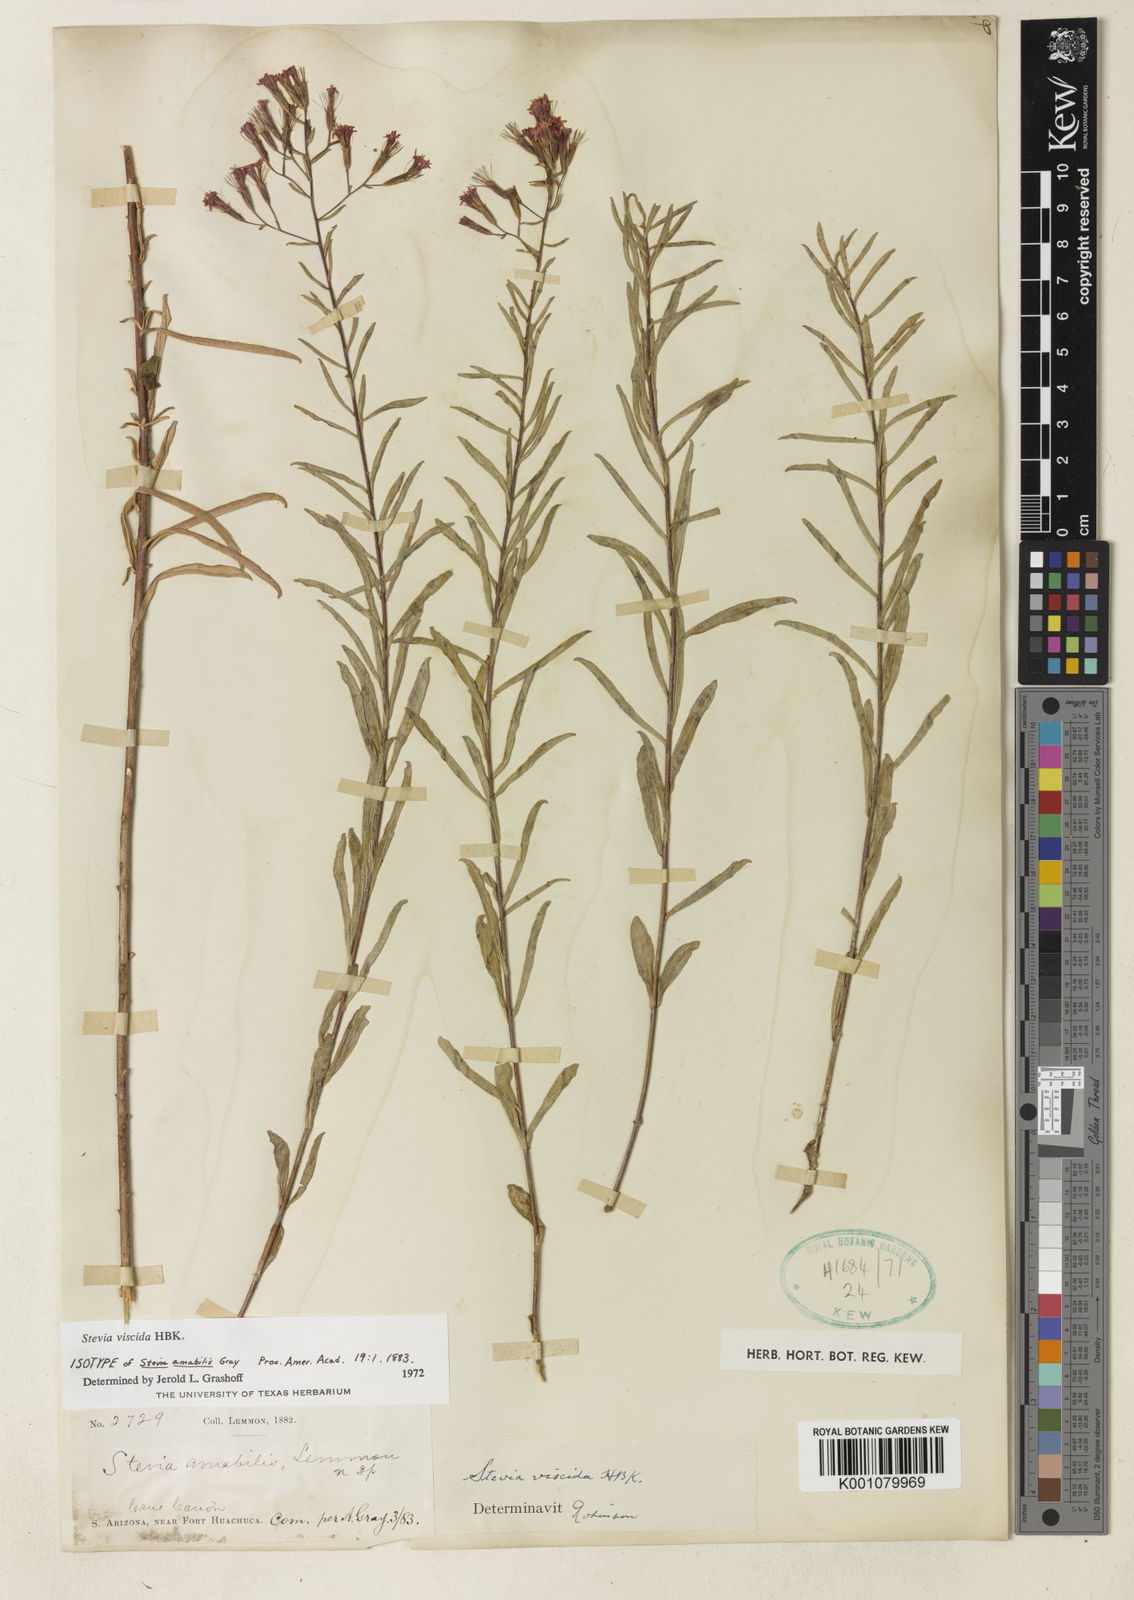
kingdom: Plantae
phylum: Tracheophyta
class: Magnoliopsida
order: Asterales
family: Asteraceae
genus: Stevia
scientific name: Stevia viscida
